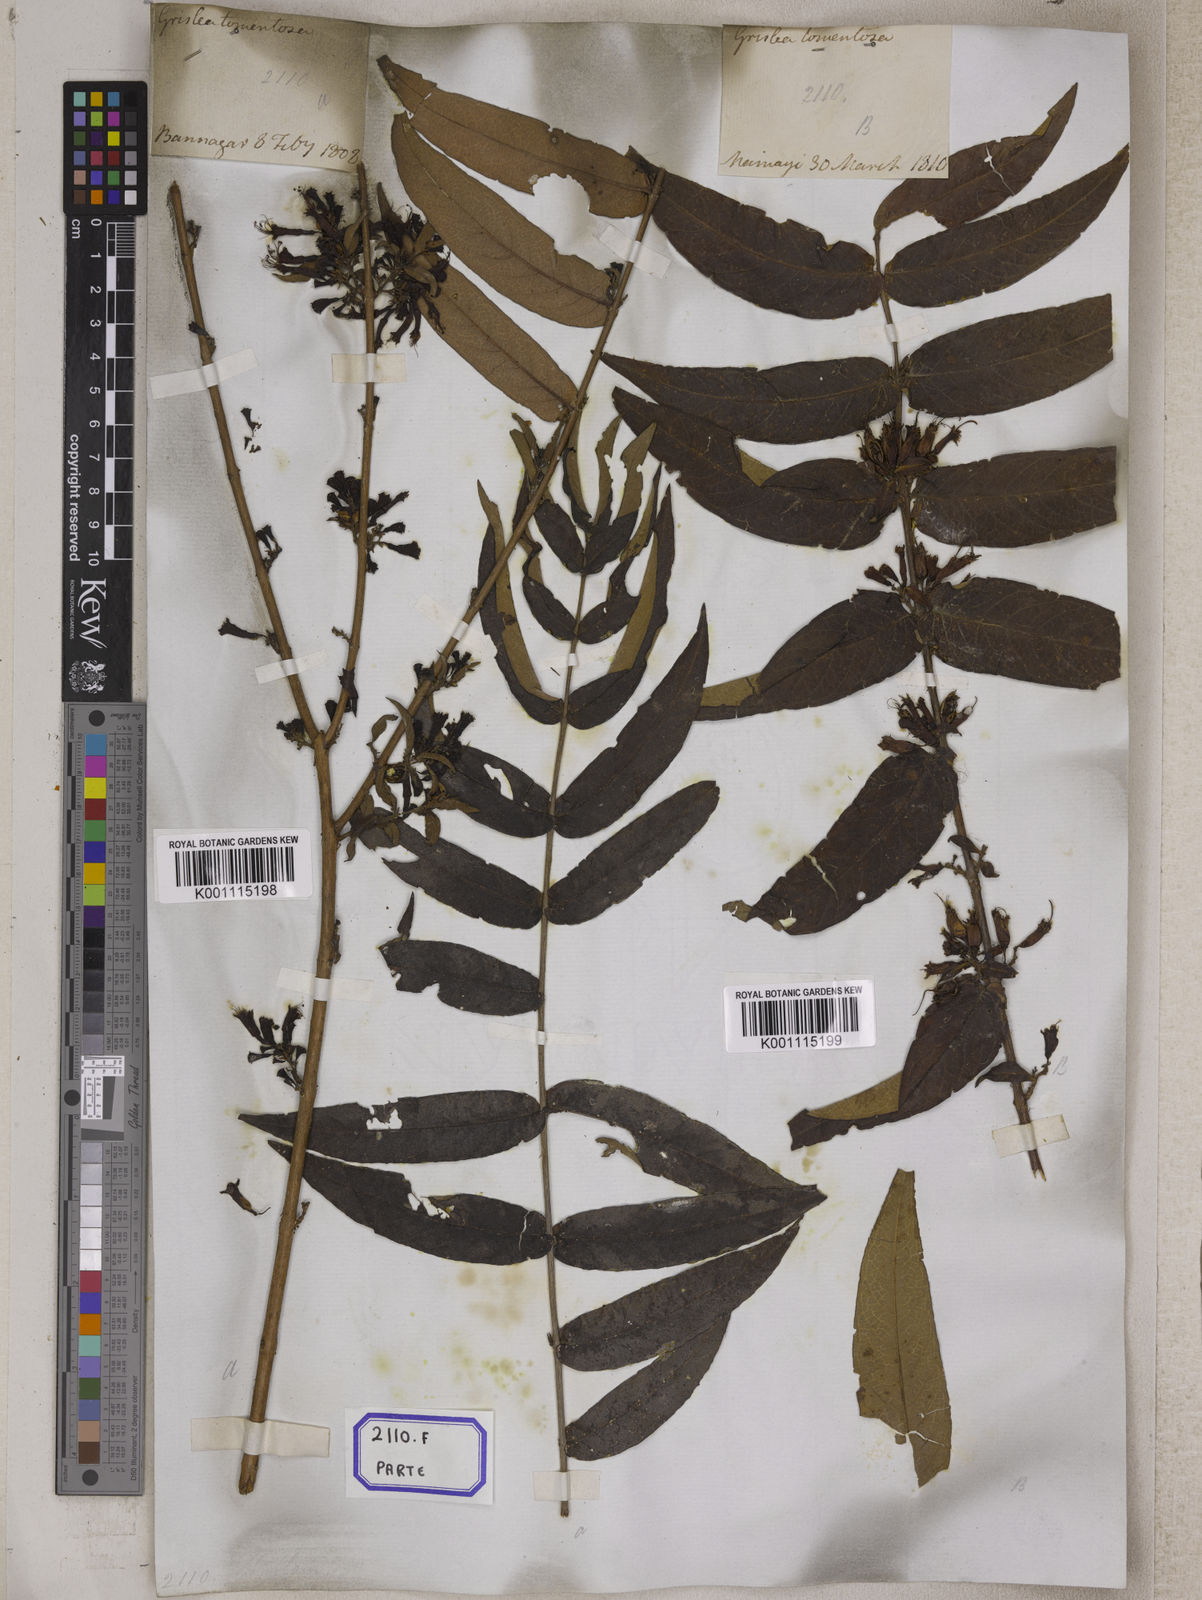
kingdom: Plantae
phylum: Tracheophyta
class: Magnoliopsida
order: Myrtales
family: Combretaceae
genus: Combretum
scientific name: Combretum
